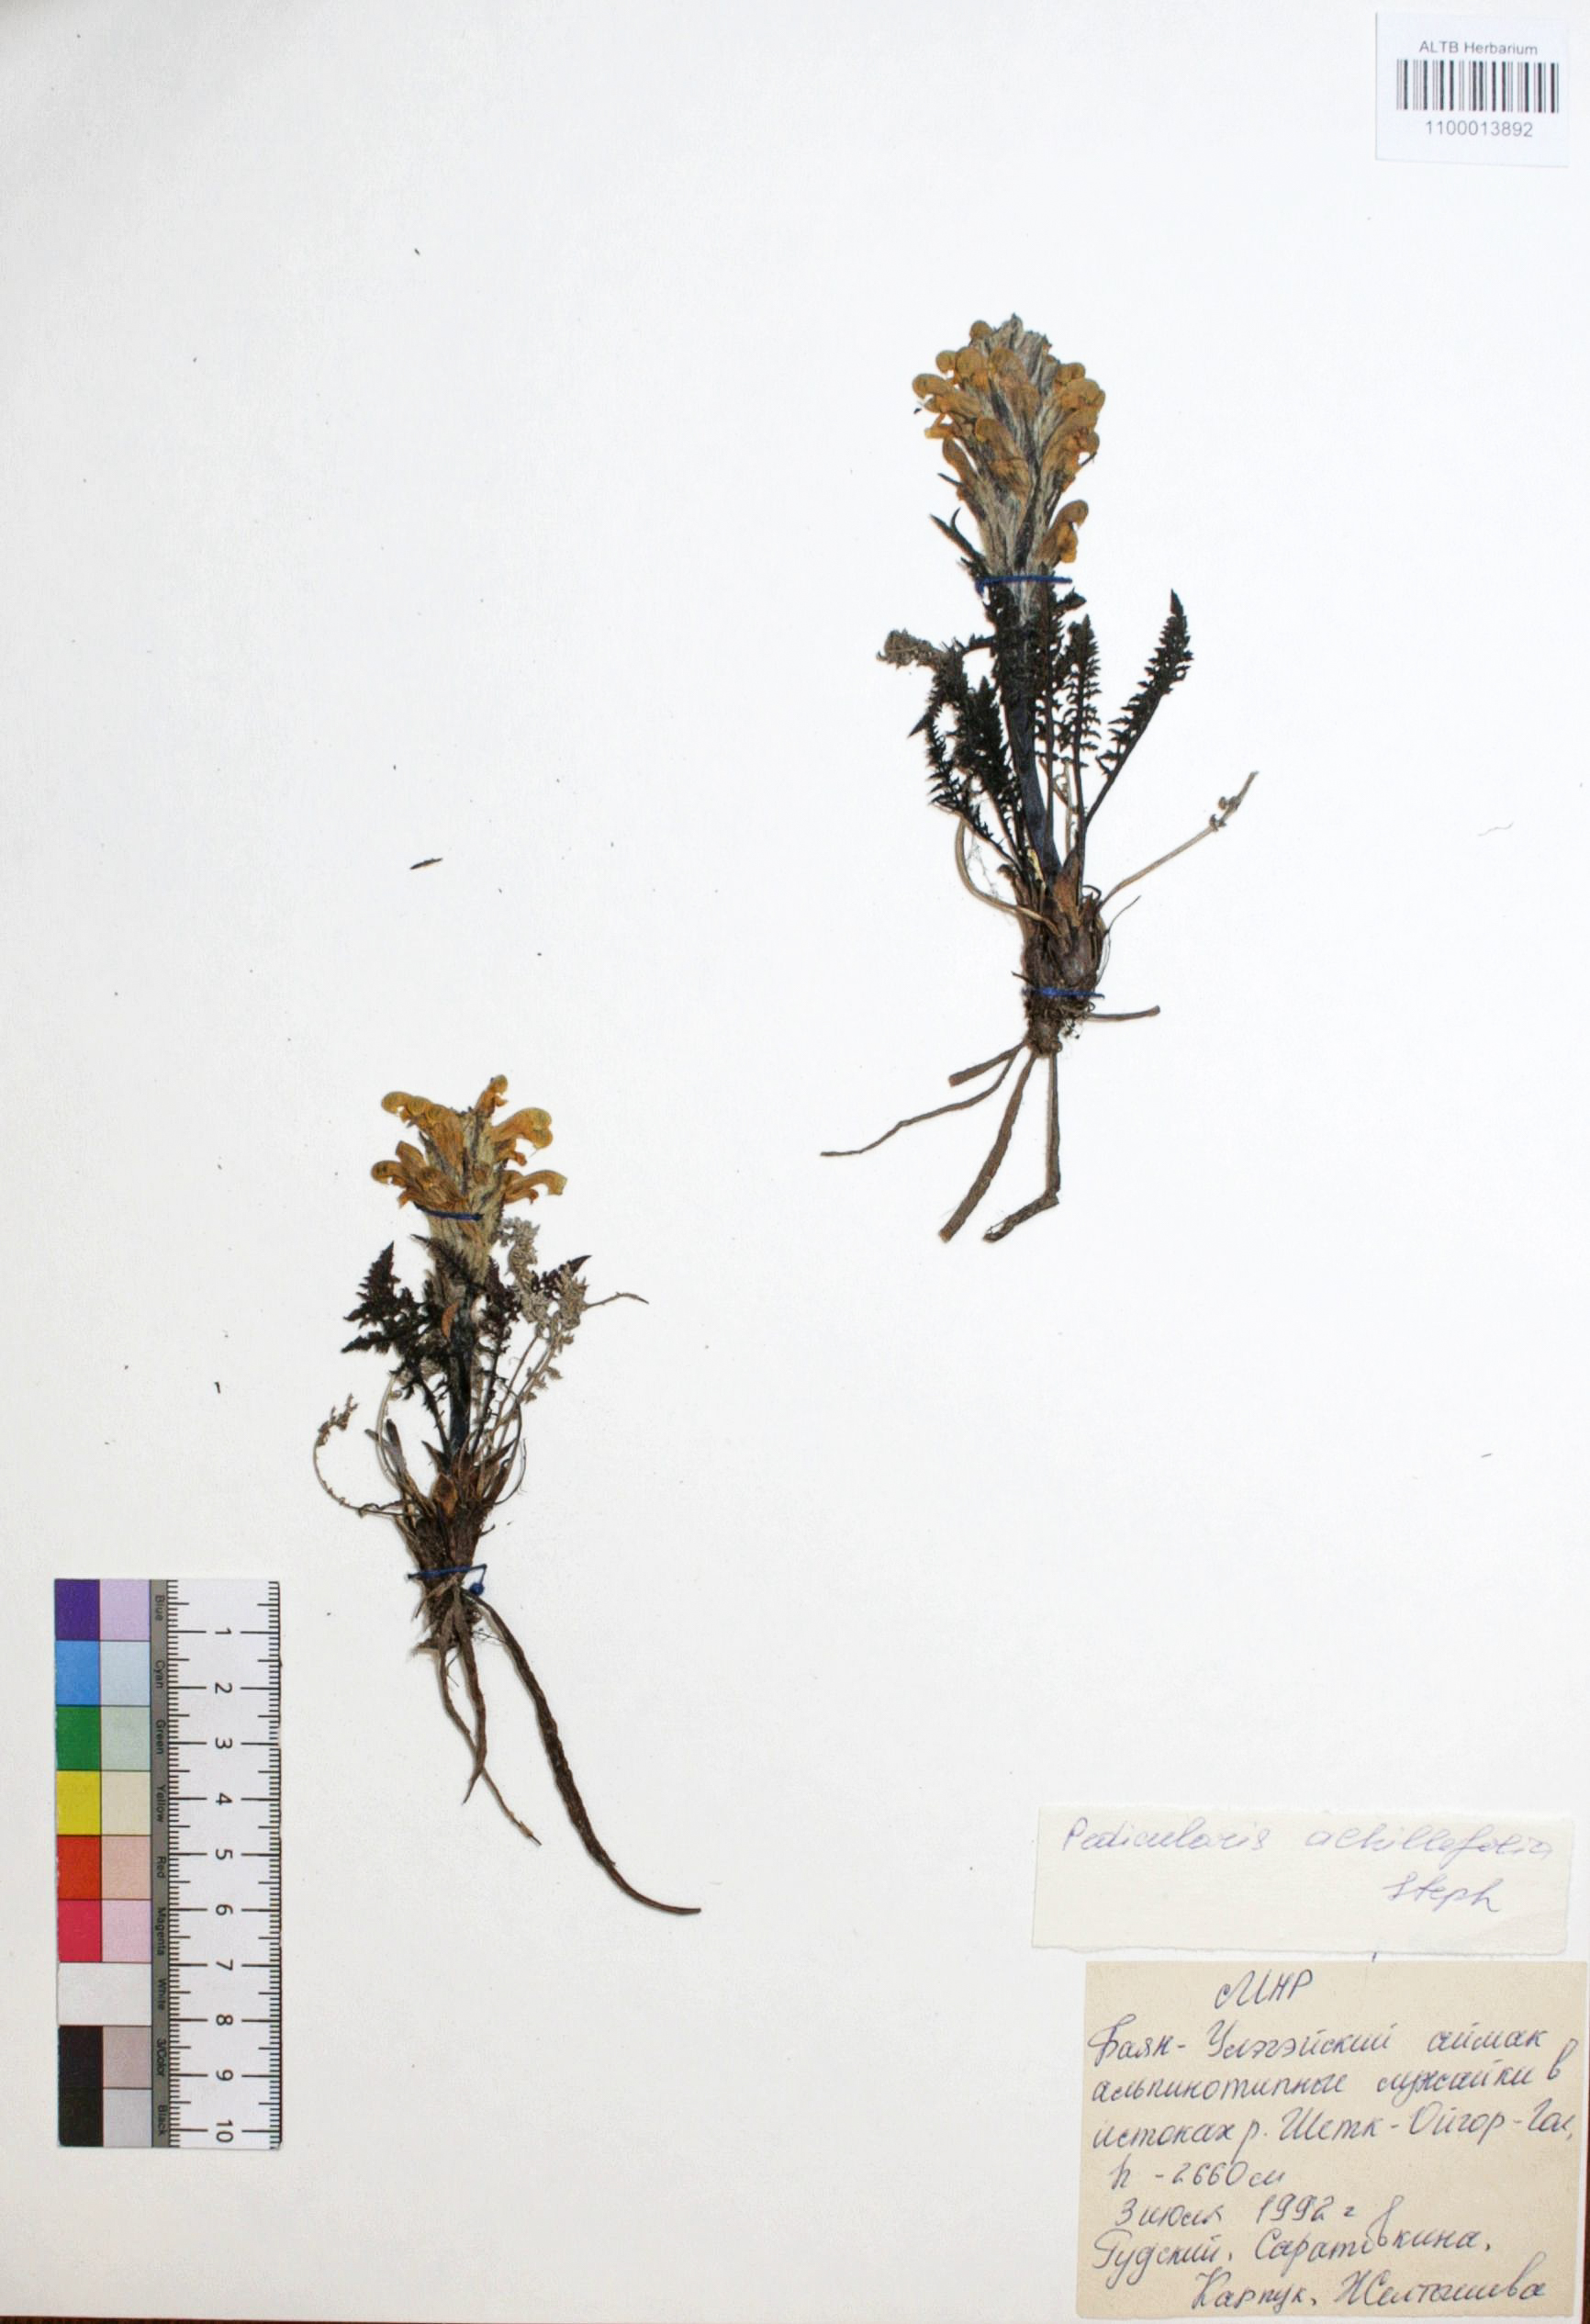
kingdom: Plantae
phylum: Tracheophyta
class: Magnoliopsida
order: Lamiales
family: Orobanchaceae
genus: Pedicularis
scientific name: Pedicularis achilleifolia
